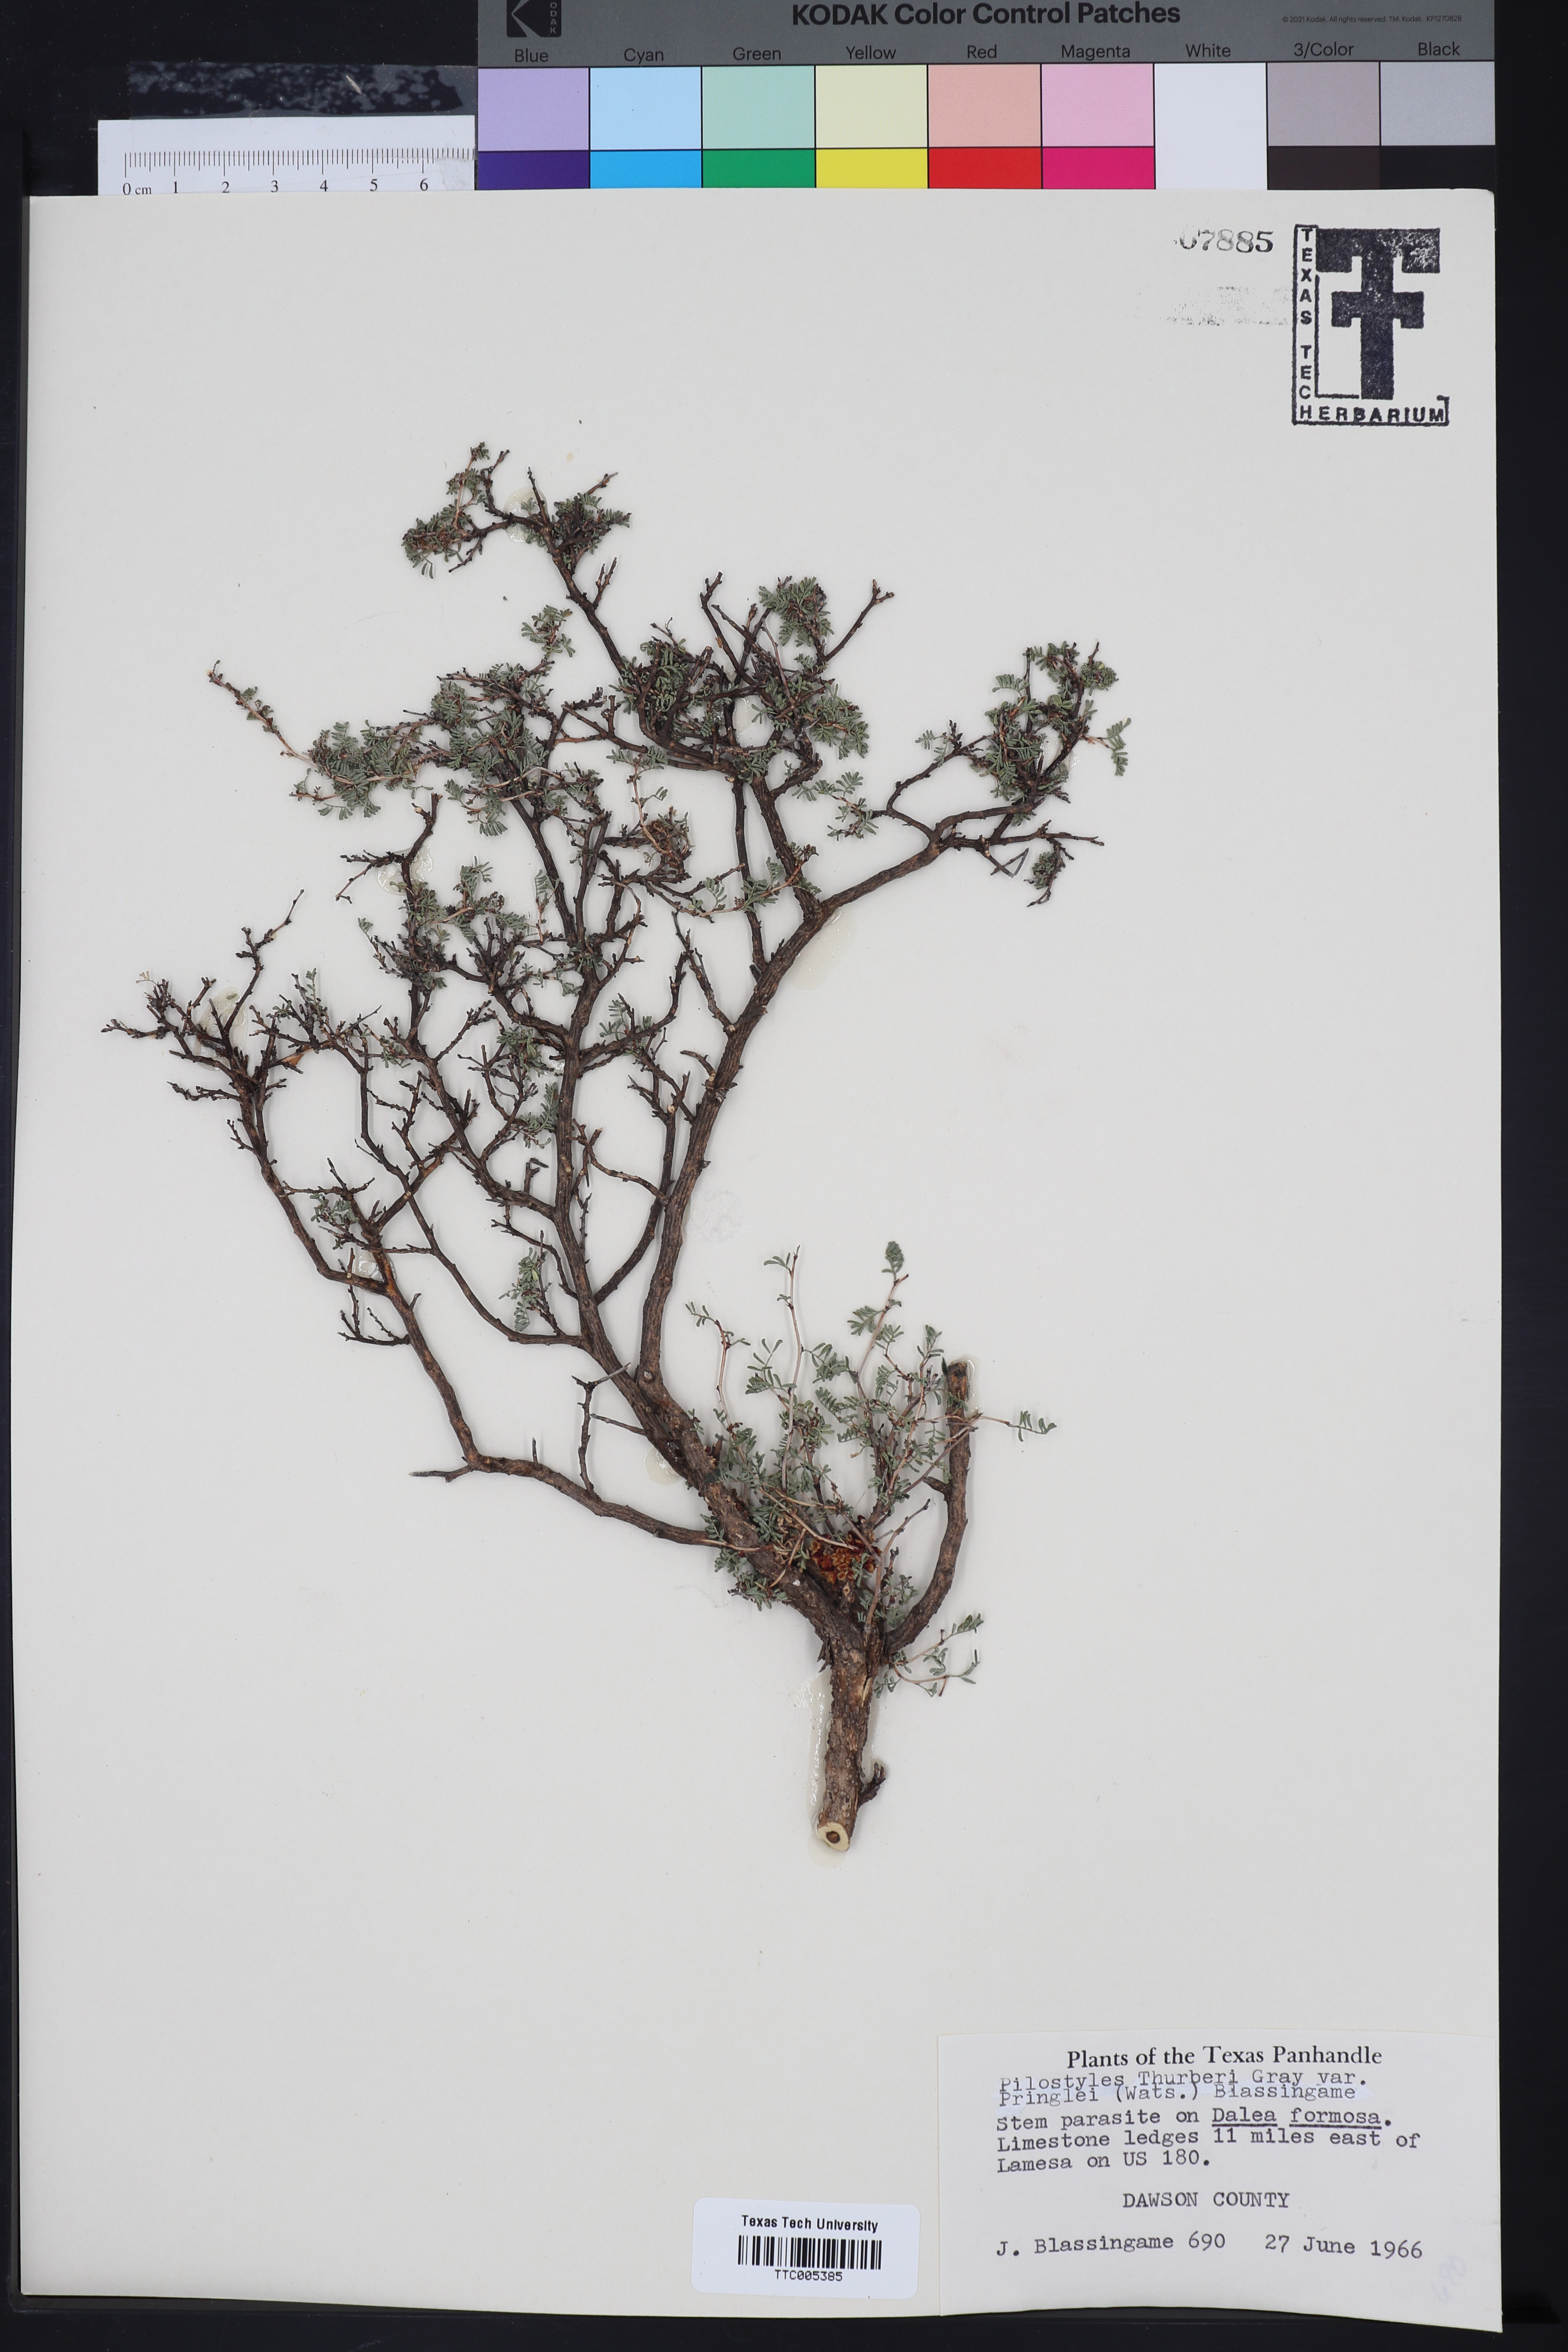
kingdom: Plantae
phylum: Tracheophyta
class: Magnoliopsida
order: Cucurbitales
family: Apodanthaceae
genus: Pilostyles
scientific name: Pilostyles thurberi
